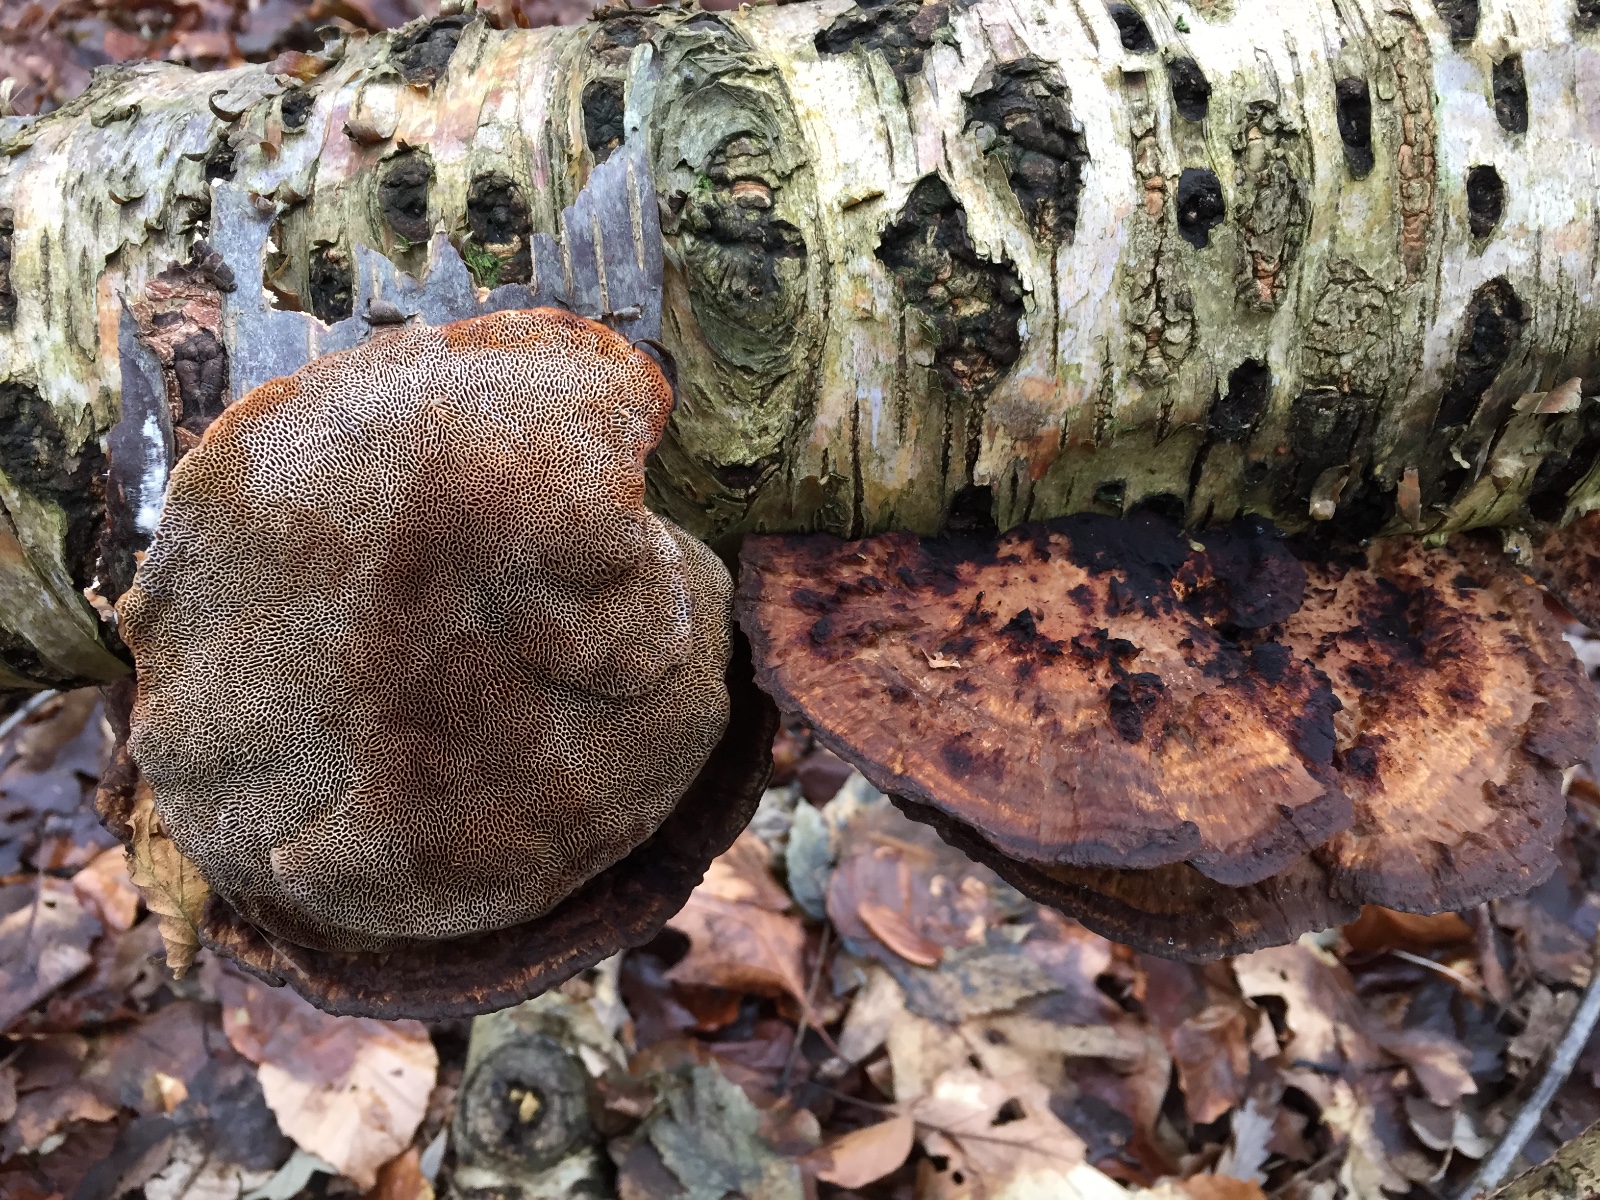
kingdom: Fungi
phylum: Basidiomycota
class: Agaricomycetes
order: Polyporales
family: Polyporaceae
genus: Daedaleopsis
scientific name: Daedaleopsis confragosa
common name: rødmende læderporesvamp
